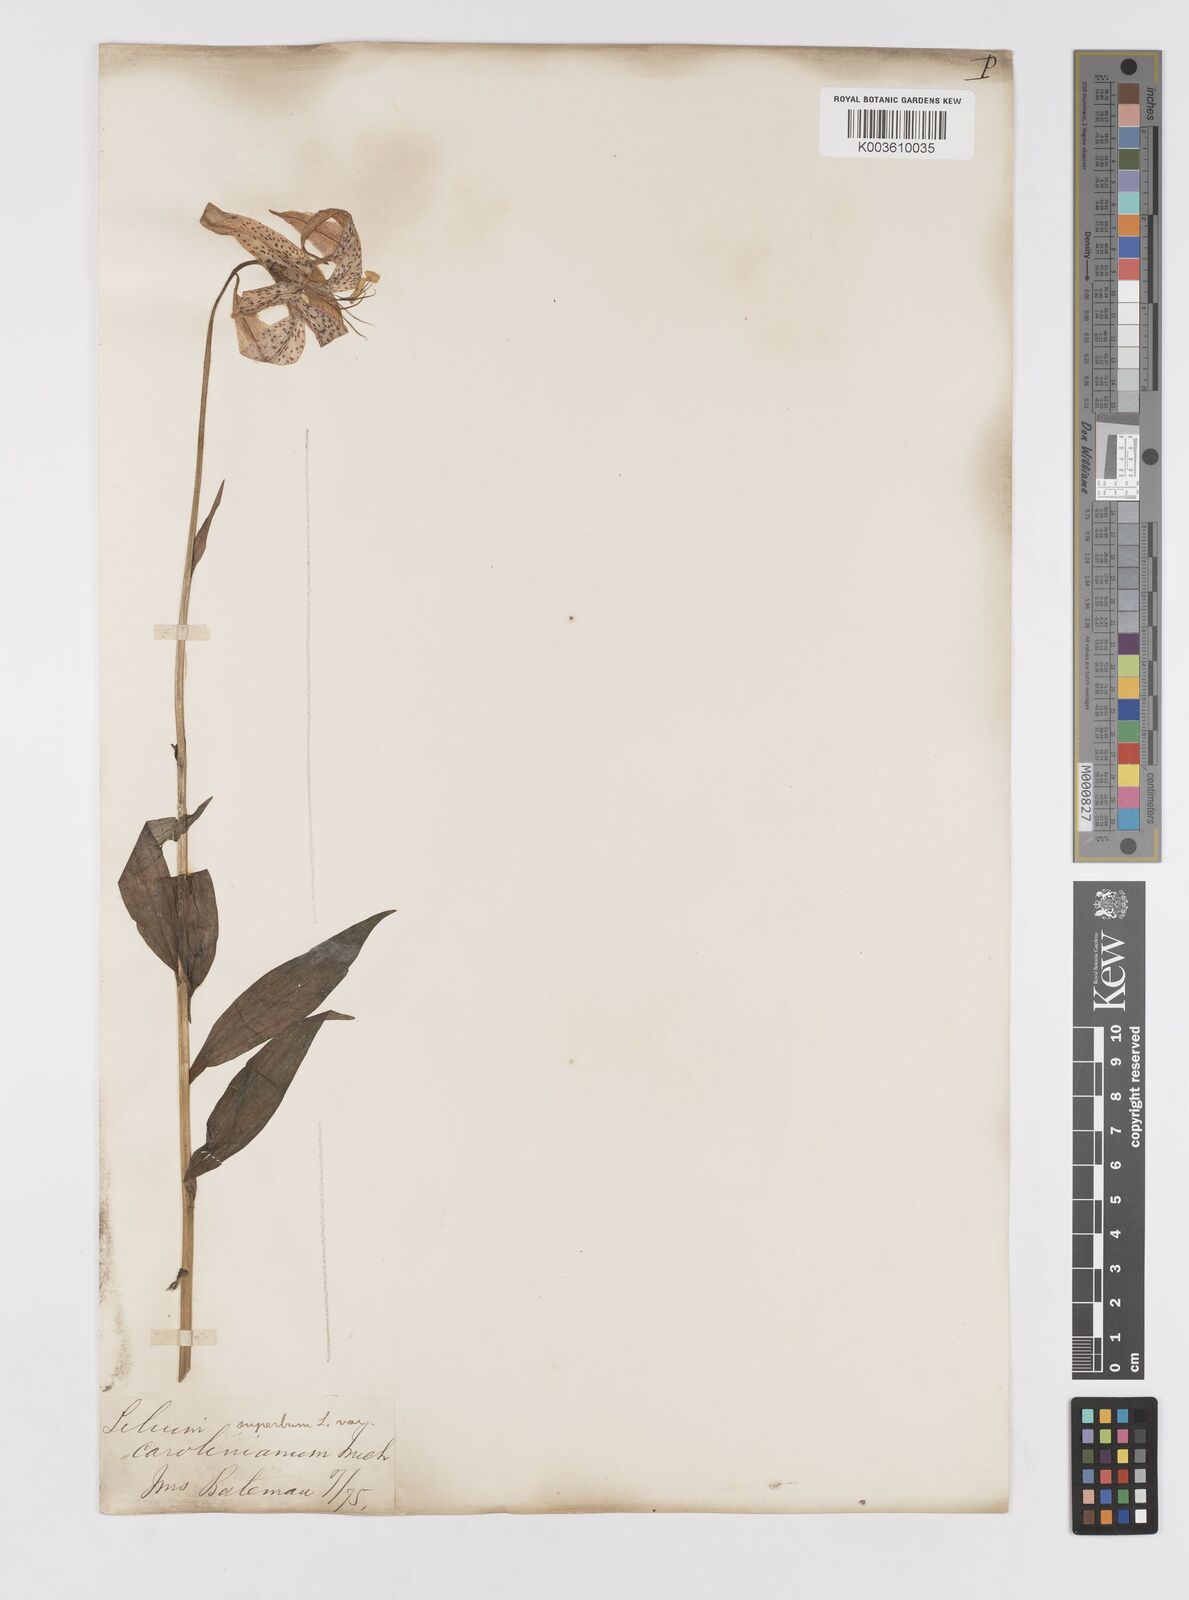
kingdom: Plantae
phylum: Tracheophyta
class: Liliopsida
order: Liliales
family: Liliaceae
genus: Lilium
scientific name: Lilium superbum
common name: American turk's-cap lily
